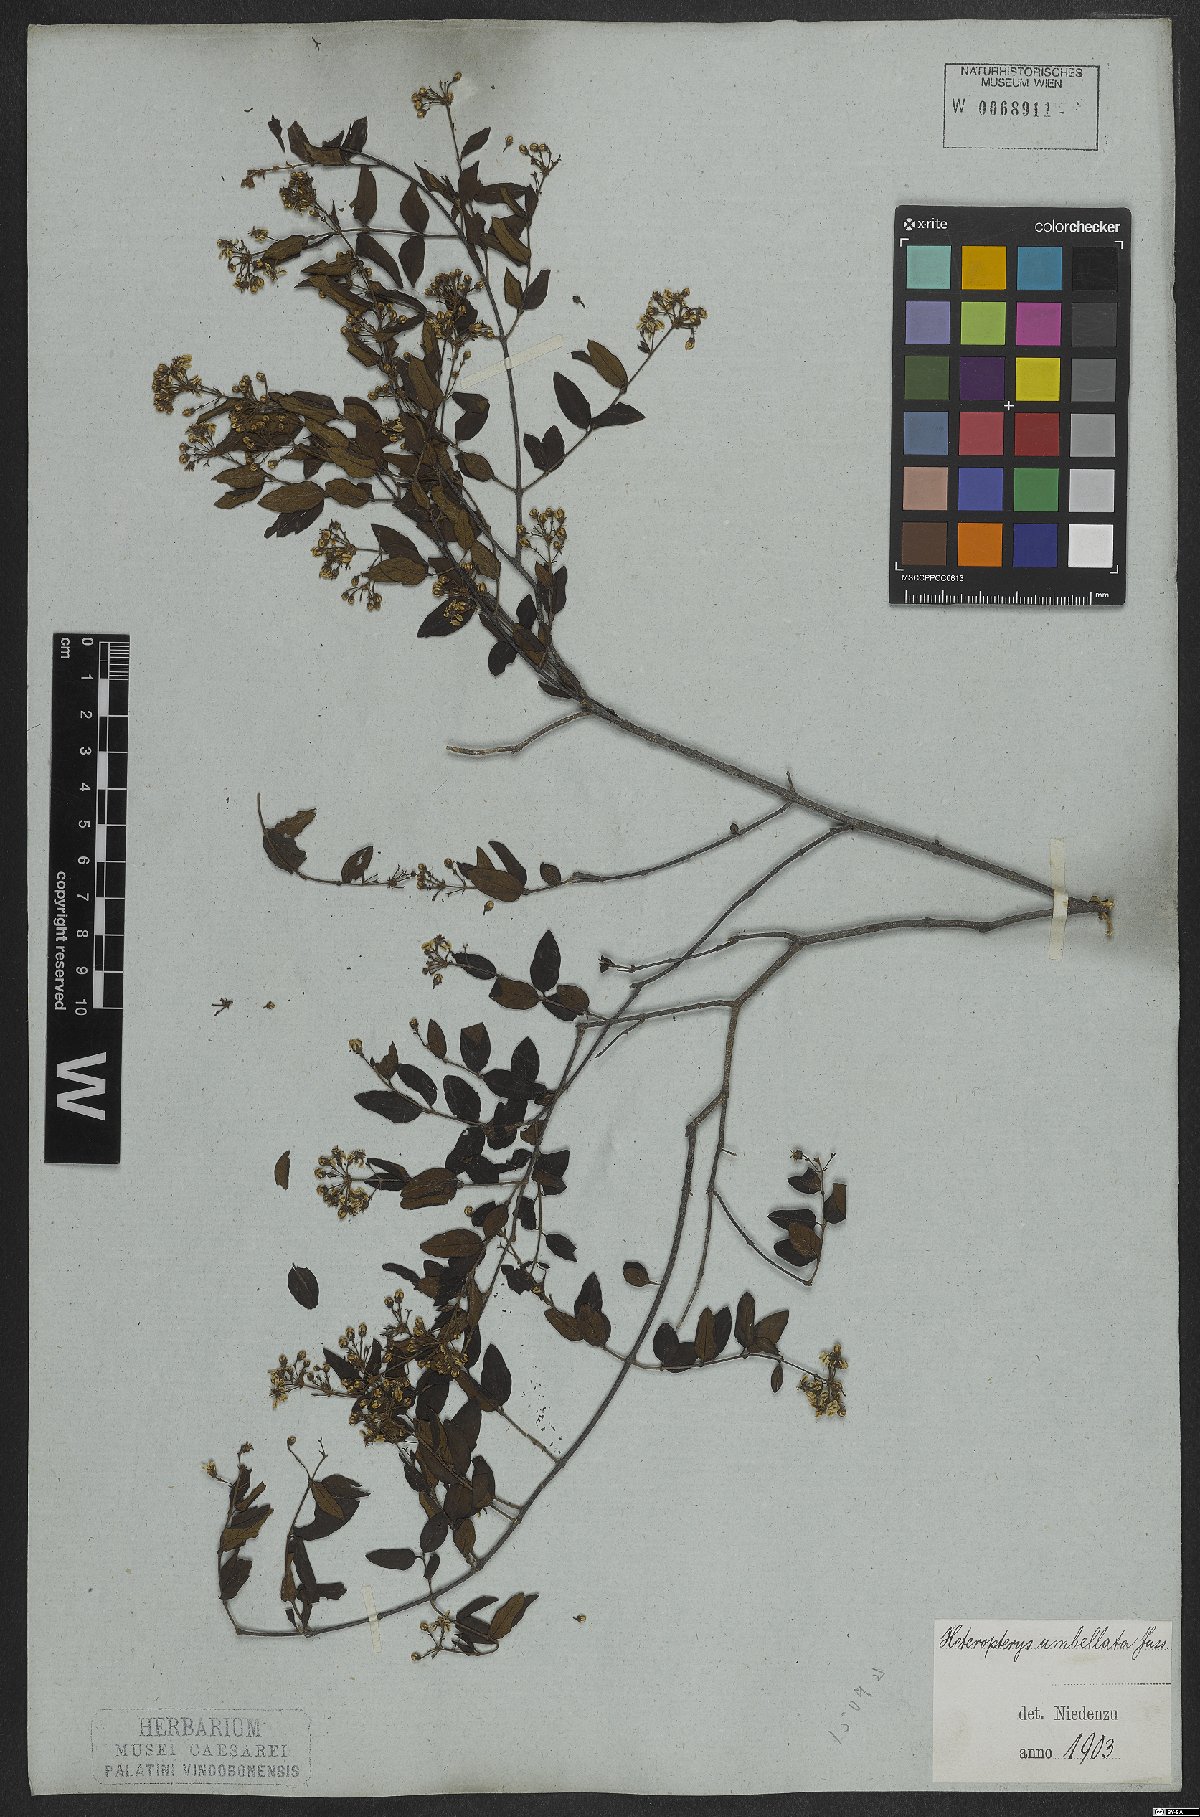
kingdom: Plantae
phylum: Tracheophyta
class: Magnoliopsida
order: Malpighiales
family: Malpighiaceae
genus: Heteropterys
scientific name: Heteropterys umbellata
